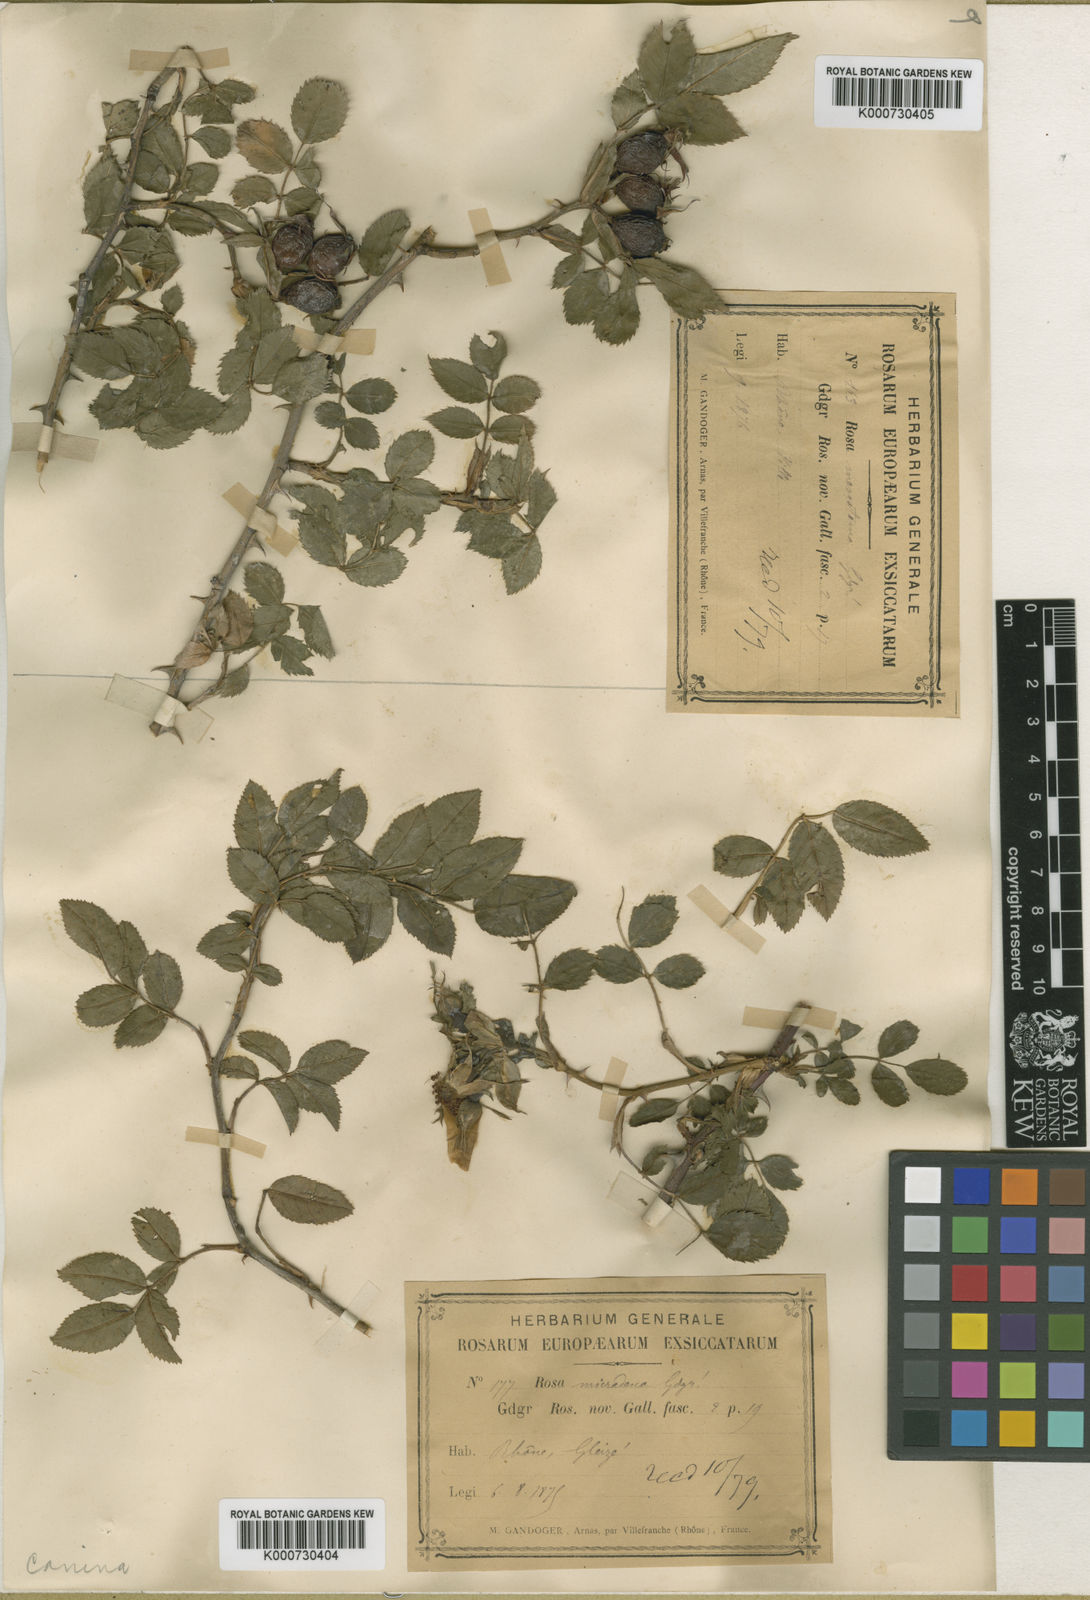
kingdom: Plantae
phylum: Tracheophyta
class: Magnoliopsida
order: Rosales
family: Rosaceae
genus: Rosa
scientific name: Rosa canina
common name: Dog rose
